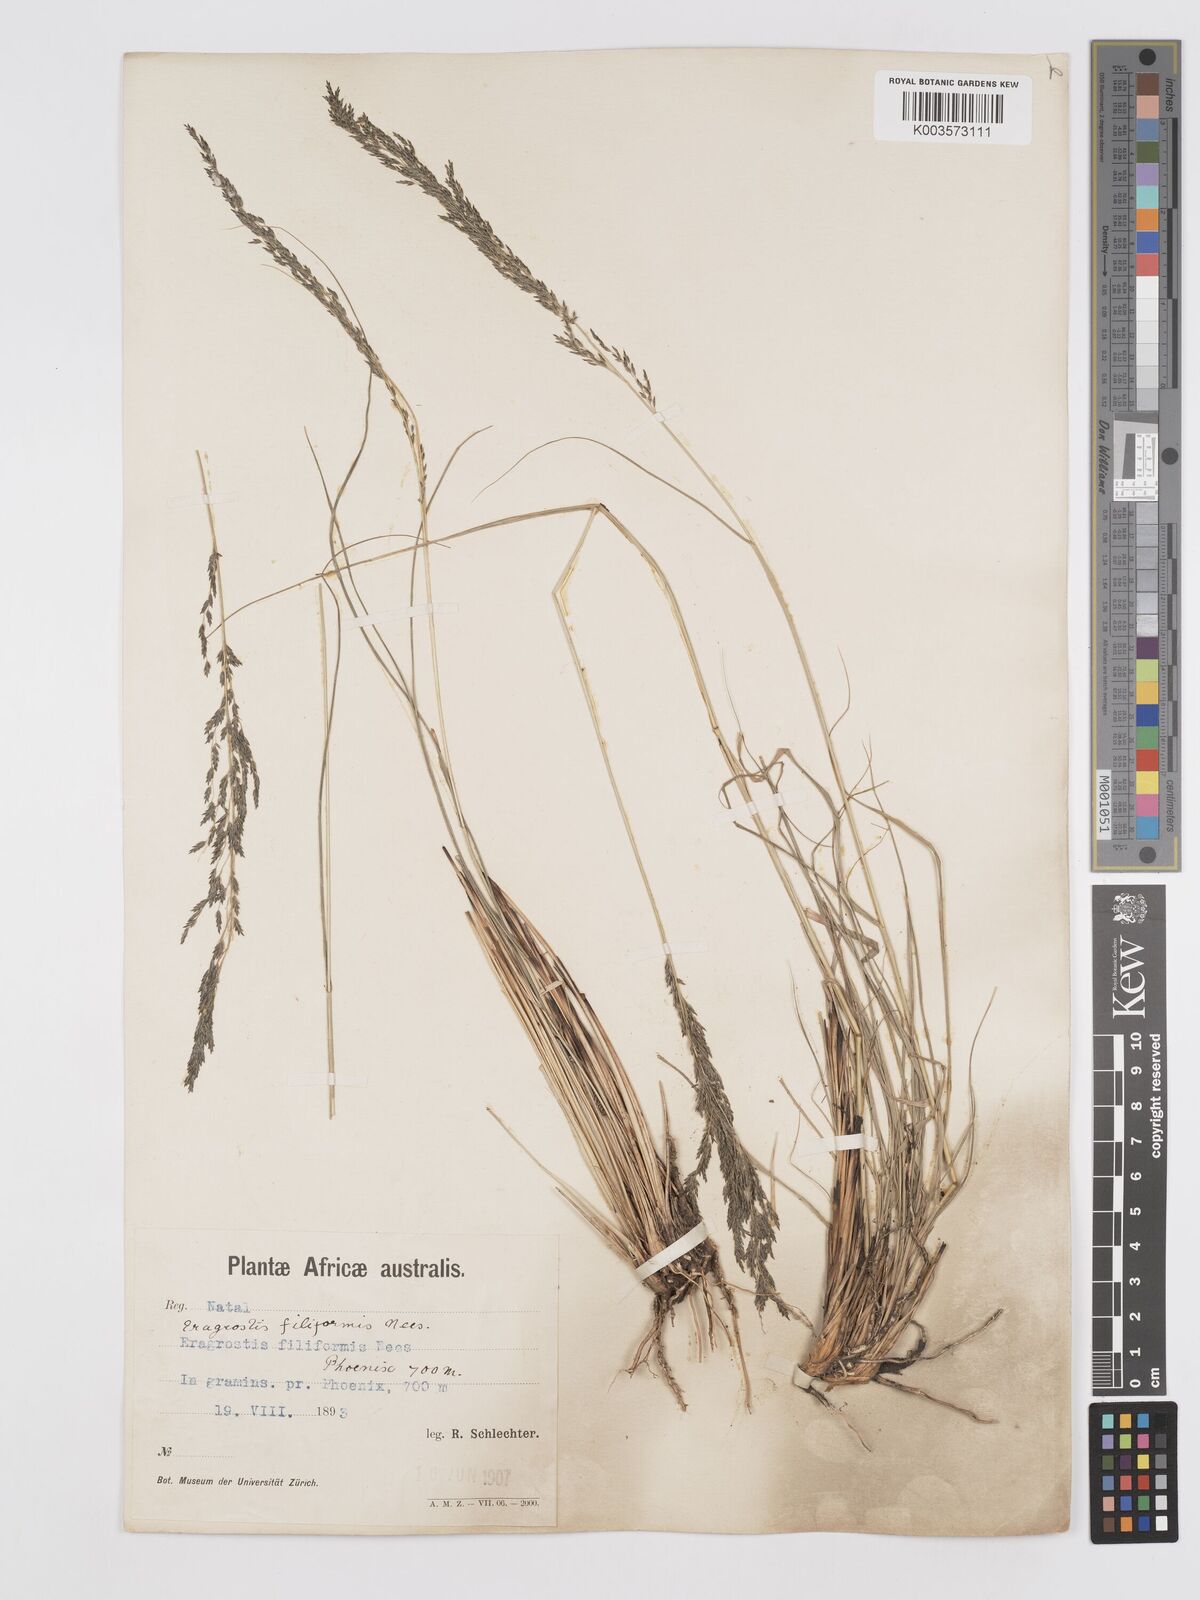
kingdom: Plantae
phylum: Tracheophyta
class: Liliopsida
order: Poales
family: Poaceae
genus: Eragrostis
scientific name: Eragrostis curvula
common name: African love-grass
